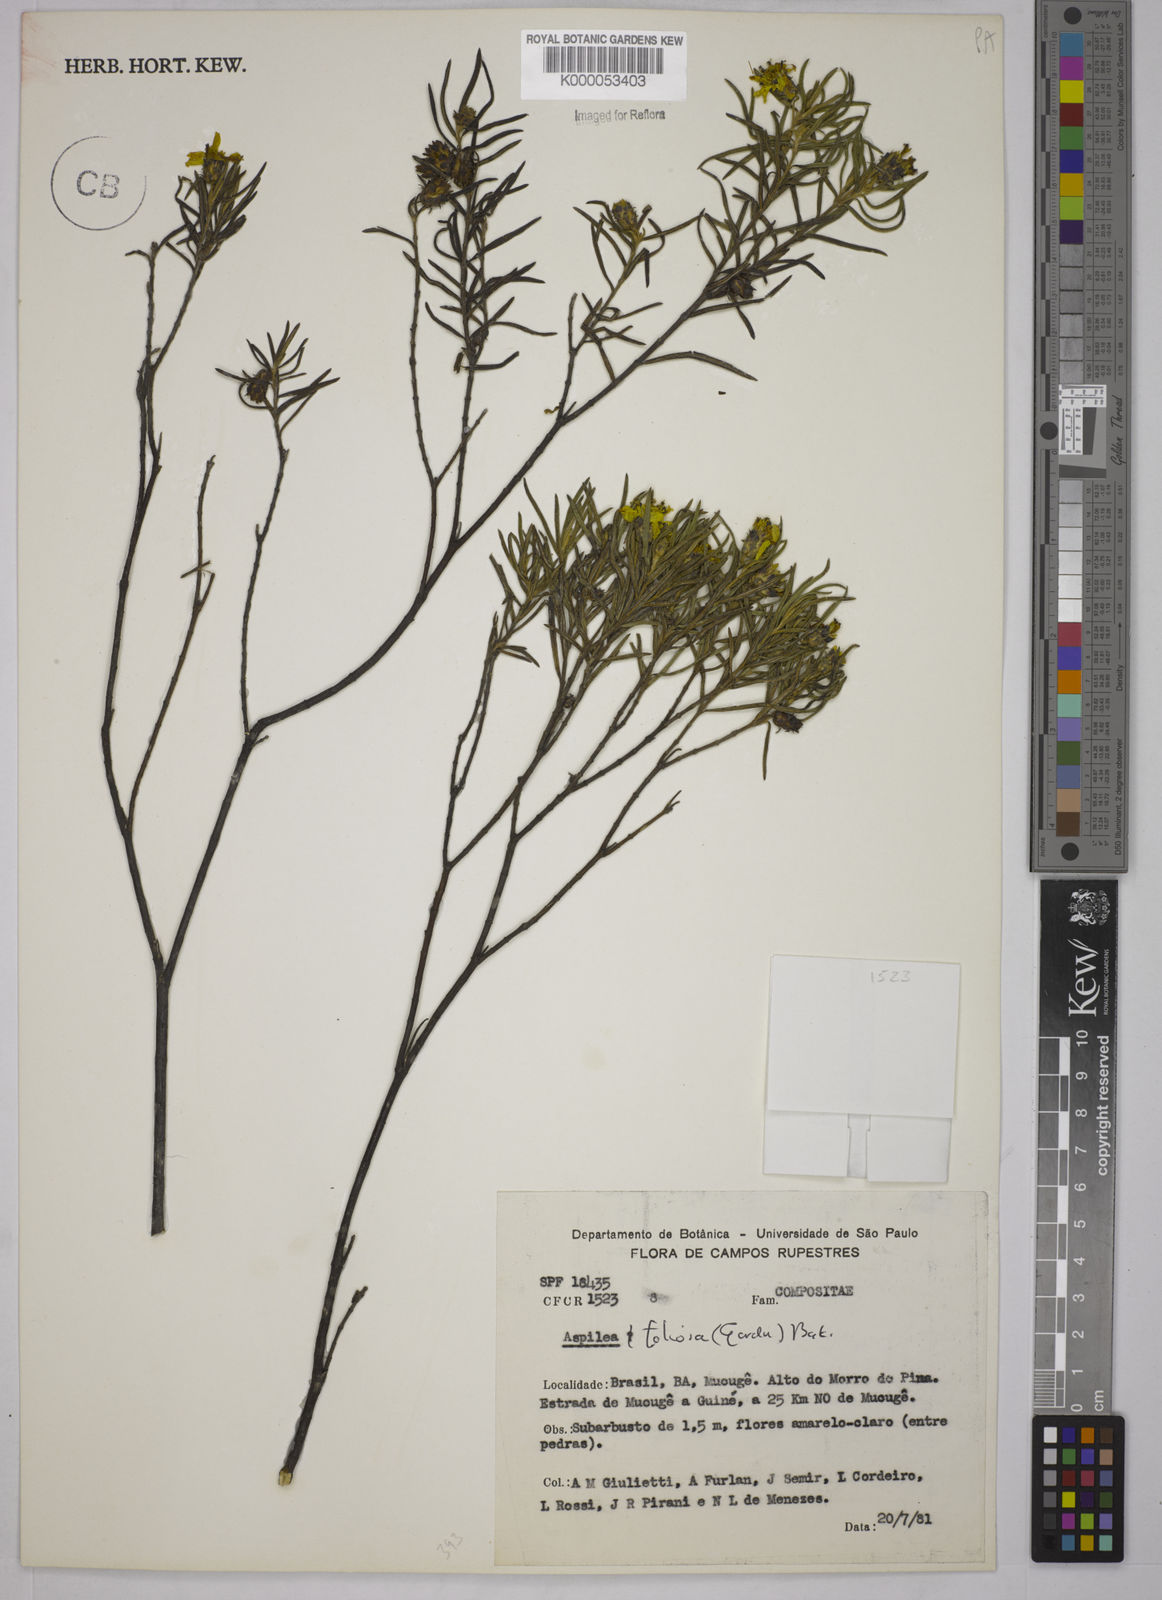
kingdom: Plantae
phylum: Tracheophyta
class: Magnoliopsida
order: Asterales
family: Asteraceae
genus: Aspilia
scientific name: Aspilia
